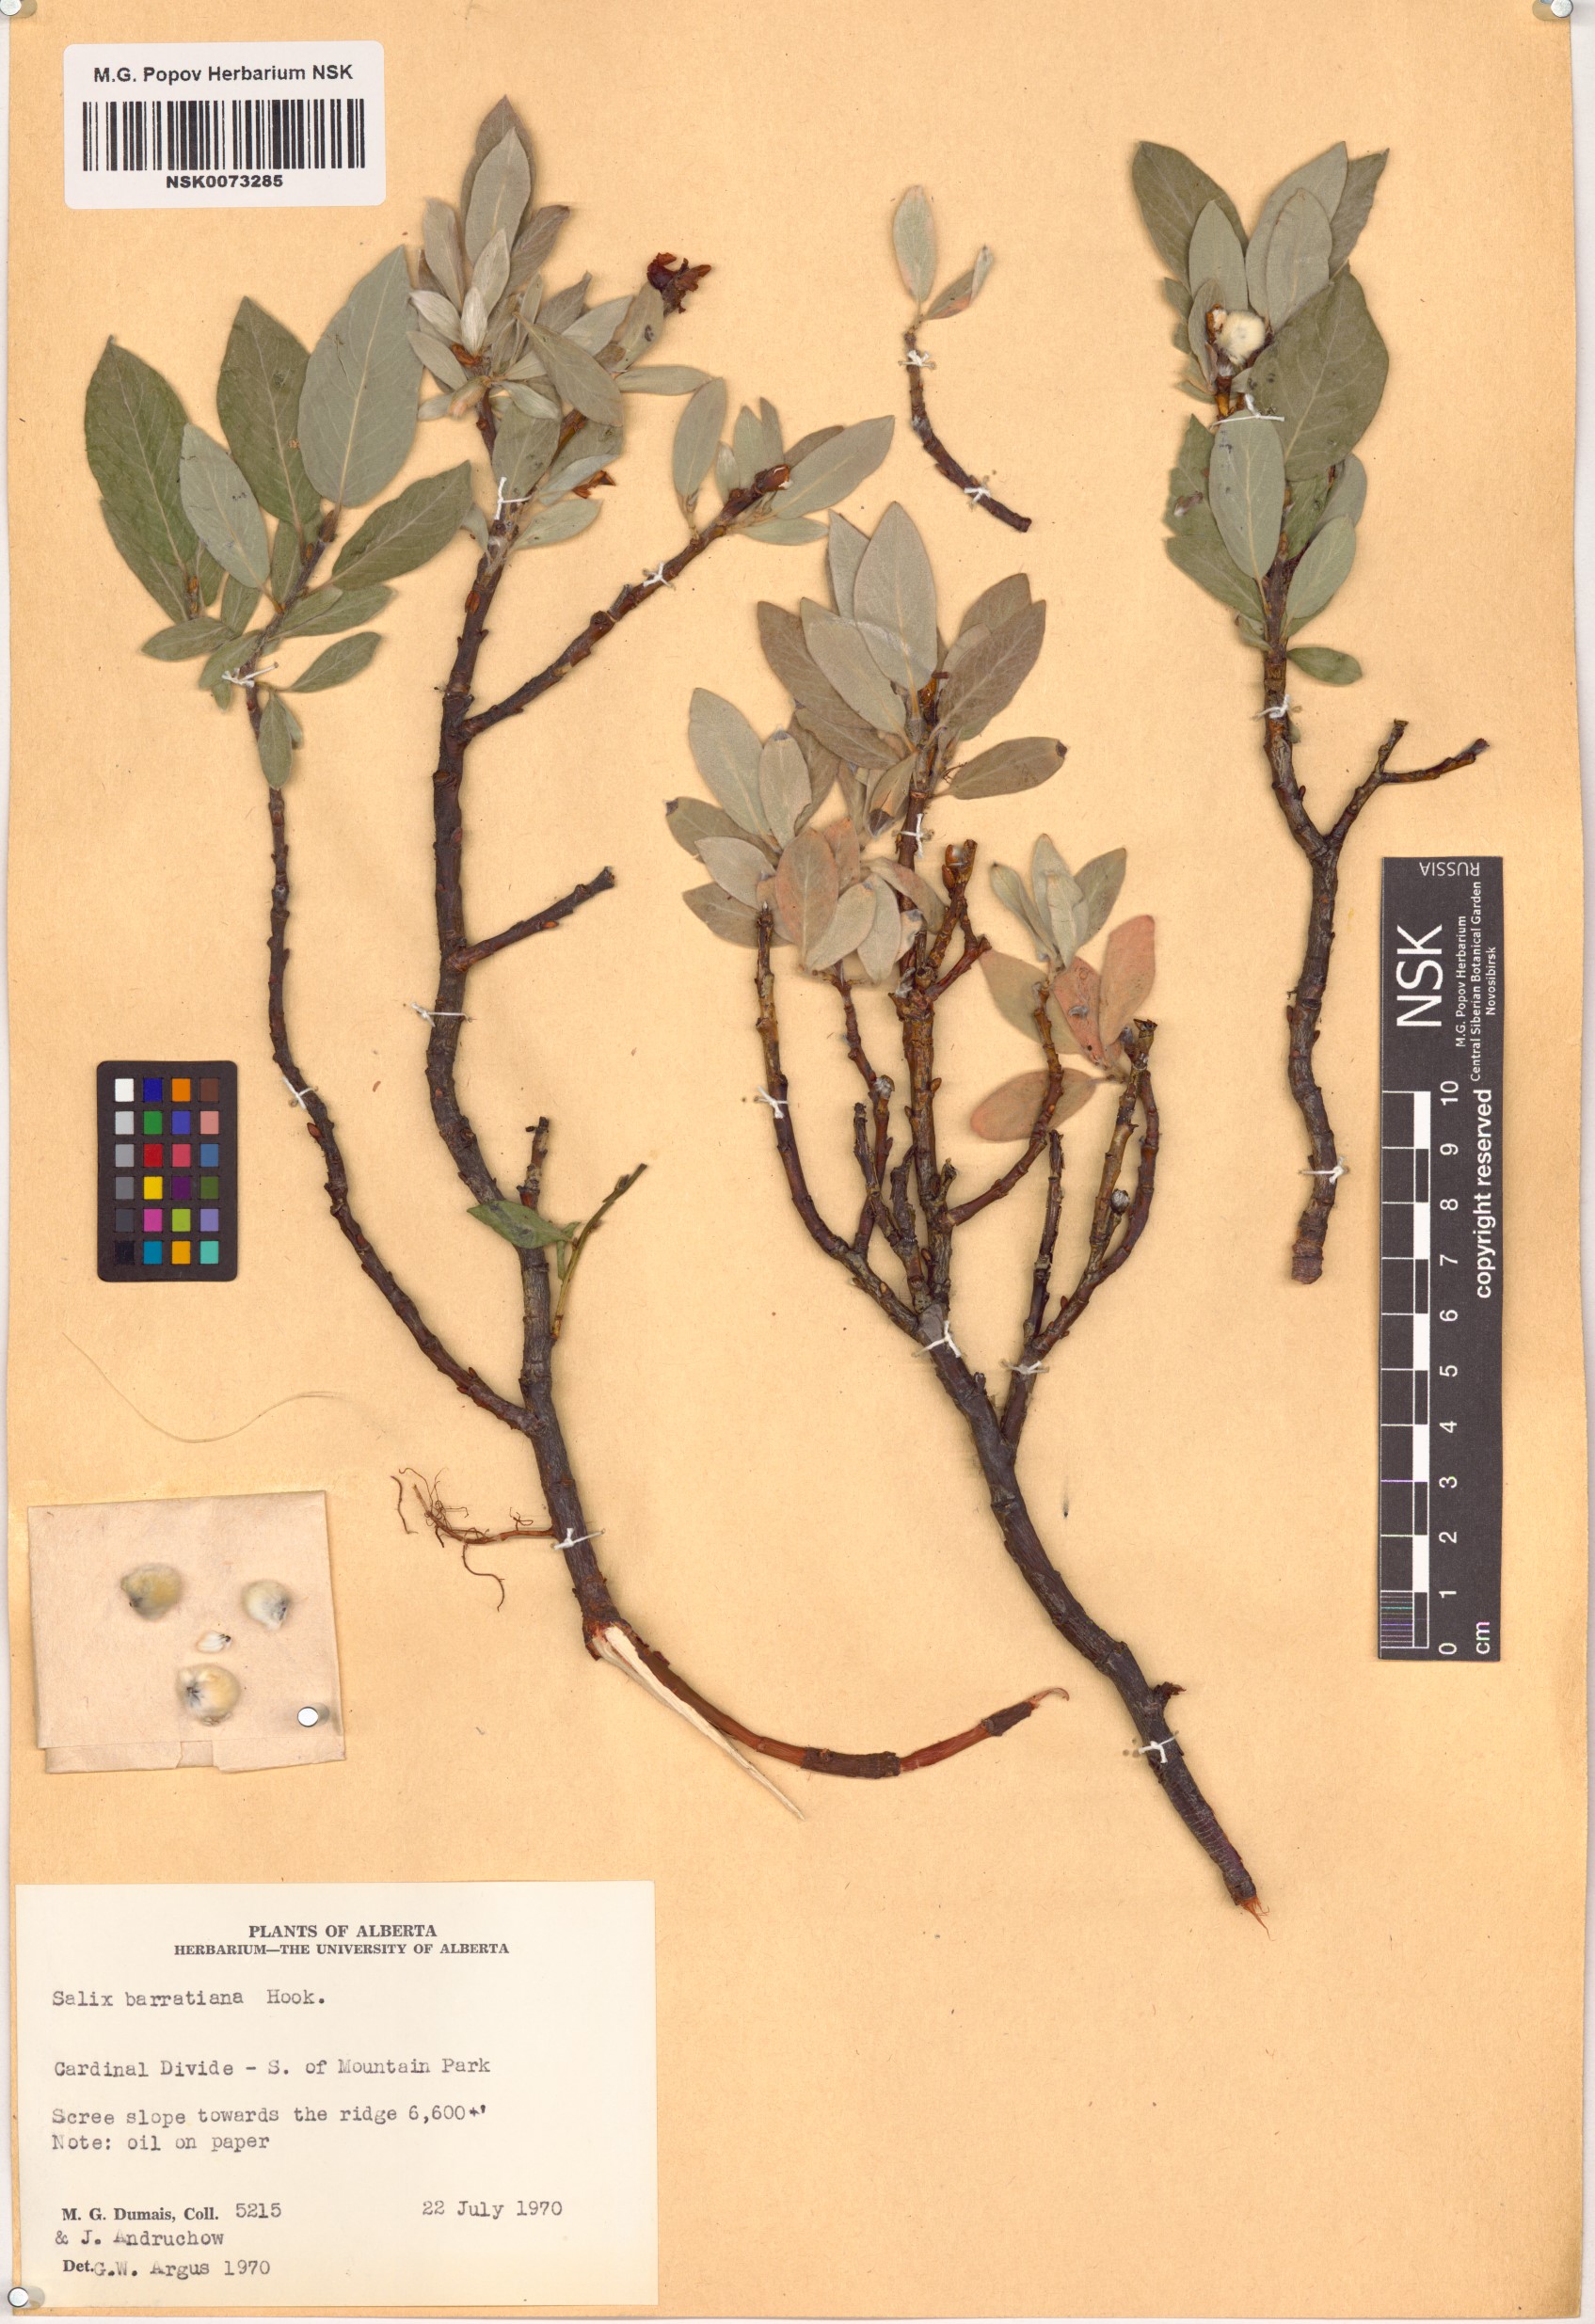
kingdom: Plantae
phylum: Tracheophyta
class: Magnoliopsida
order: Malpighiales
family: Salicaceae
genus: Salix
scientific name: Salix barrattiana
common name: Barratt's willow
